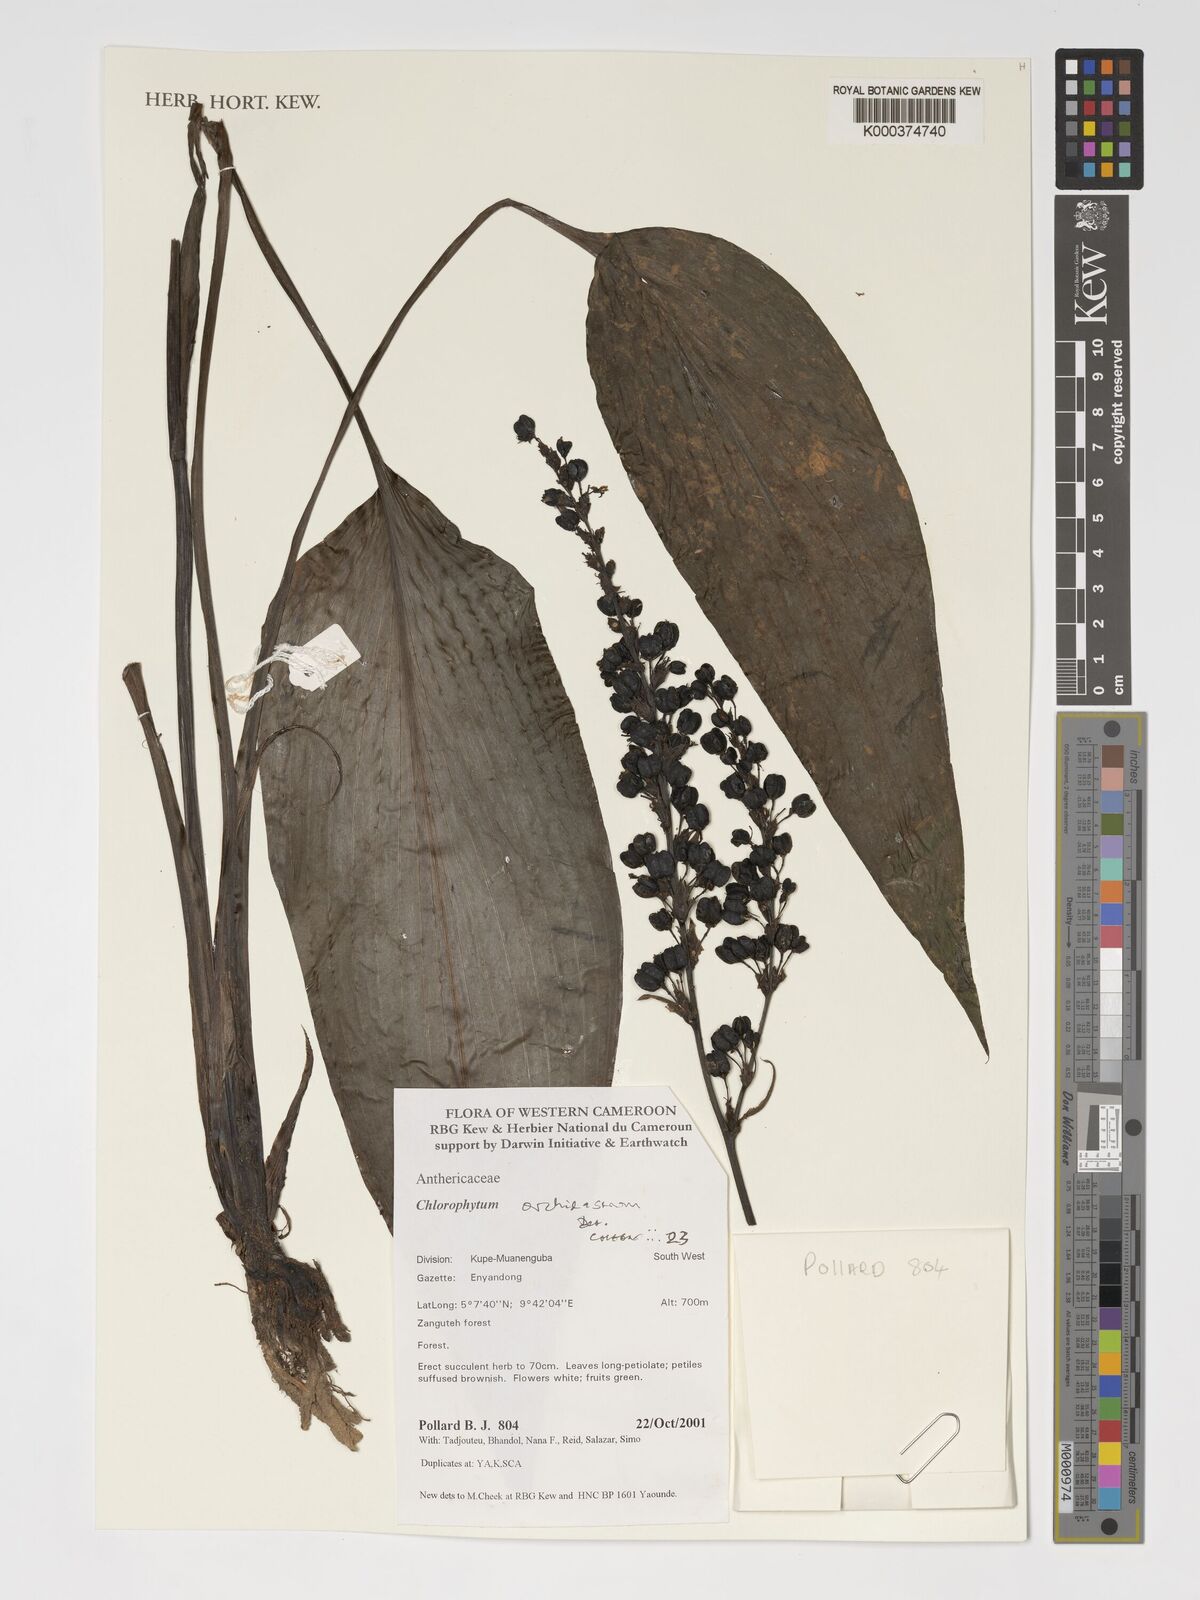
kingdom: Plantae
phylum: Tracheophyta
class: Liliopsida
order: Asparagales
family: Asparagaceae
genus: Chlorophytum
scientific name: Chlorophytum orchidastrum
